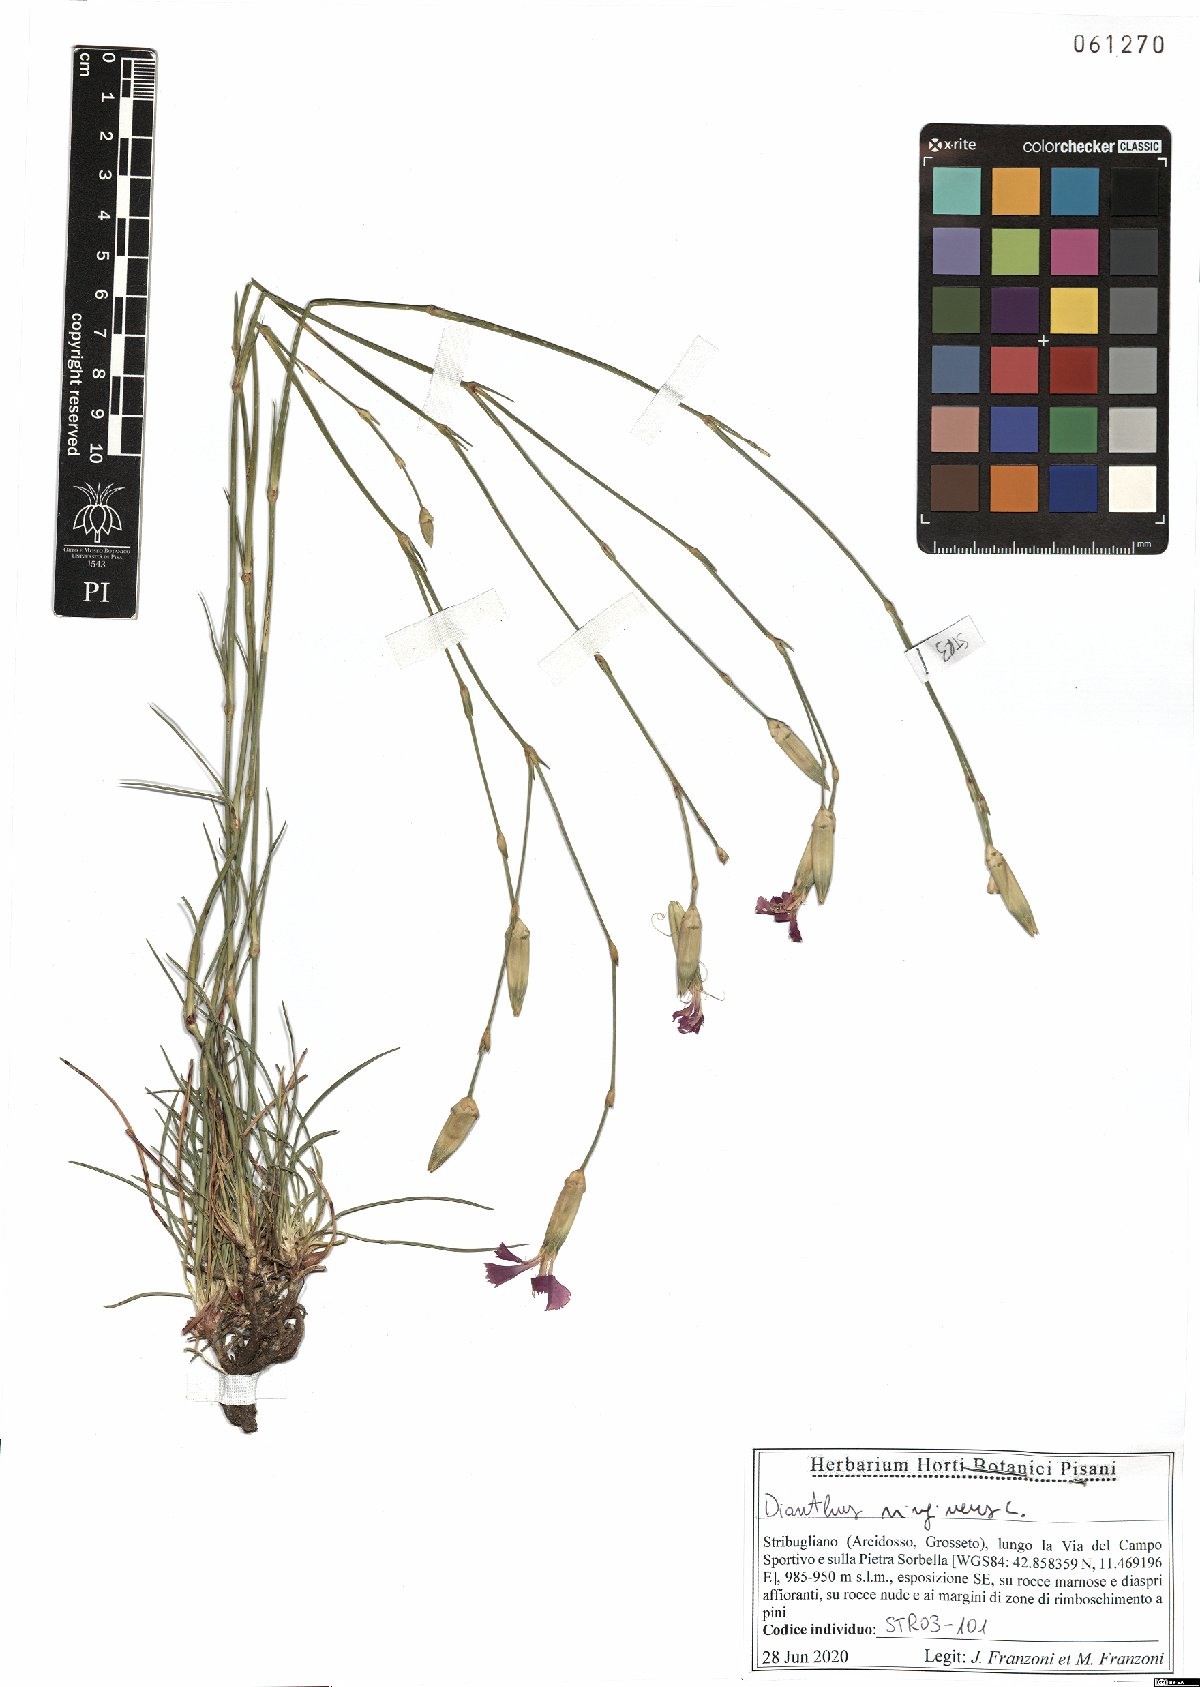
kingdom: Plantae
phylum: Tracheophyta
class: Magnoliopsida
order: Caryophyllales
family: Caryophyllaceae
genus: Dianthus
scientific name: Dianthus virgineus
